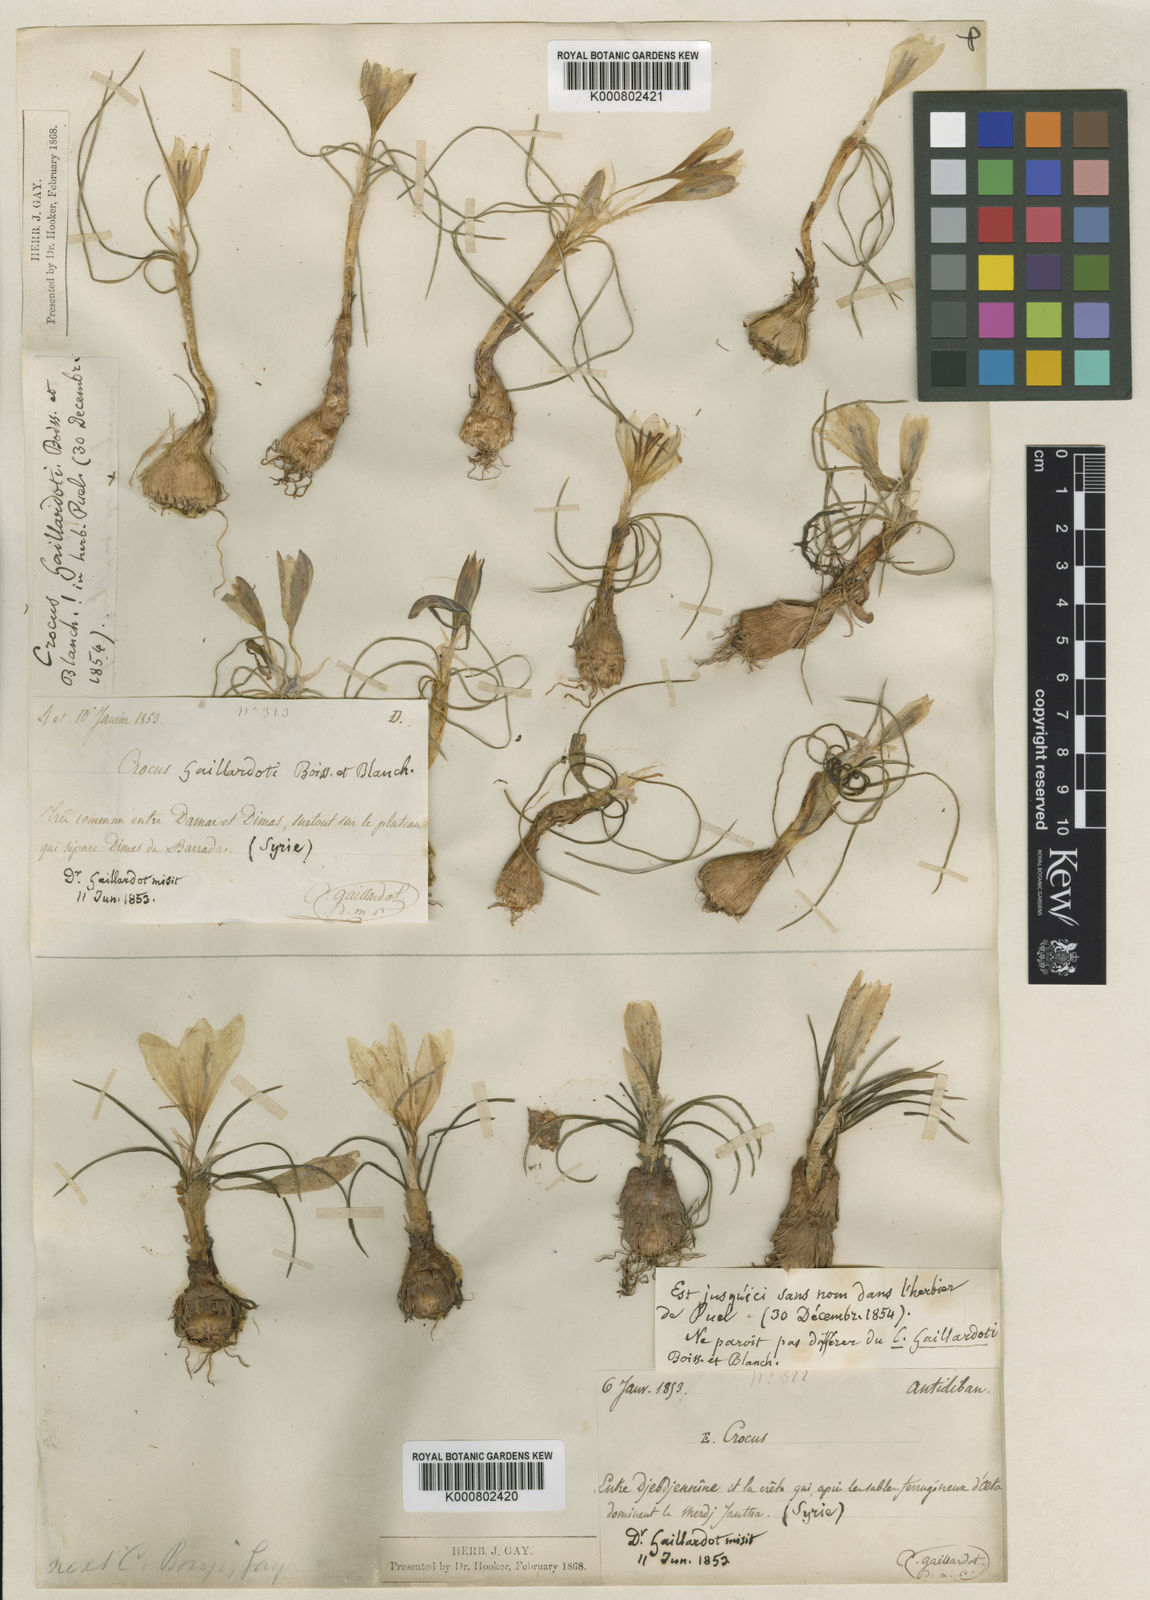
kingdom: Plantae
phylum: Tracheophyta
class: Liliopsida
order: Asparagales
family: Iridaceae
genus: Crocus
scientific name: Crocus aleppicus
